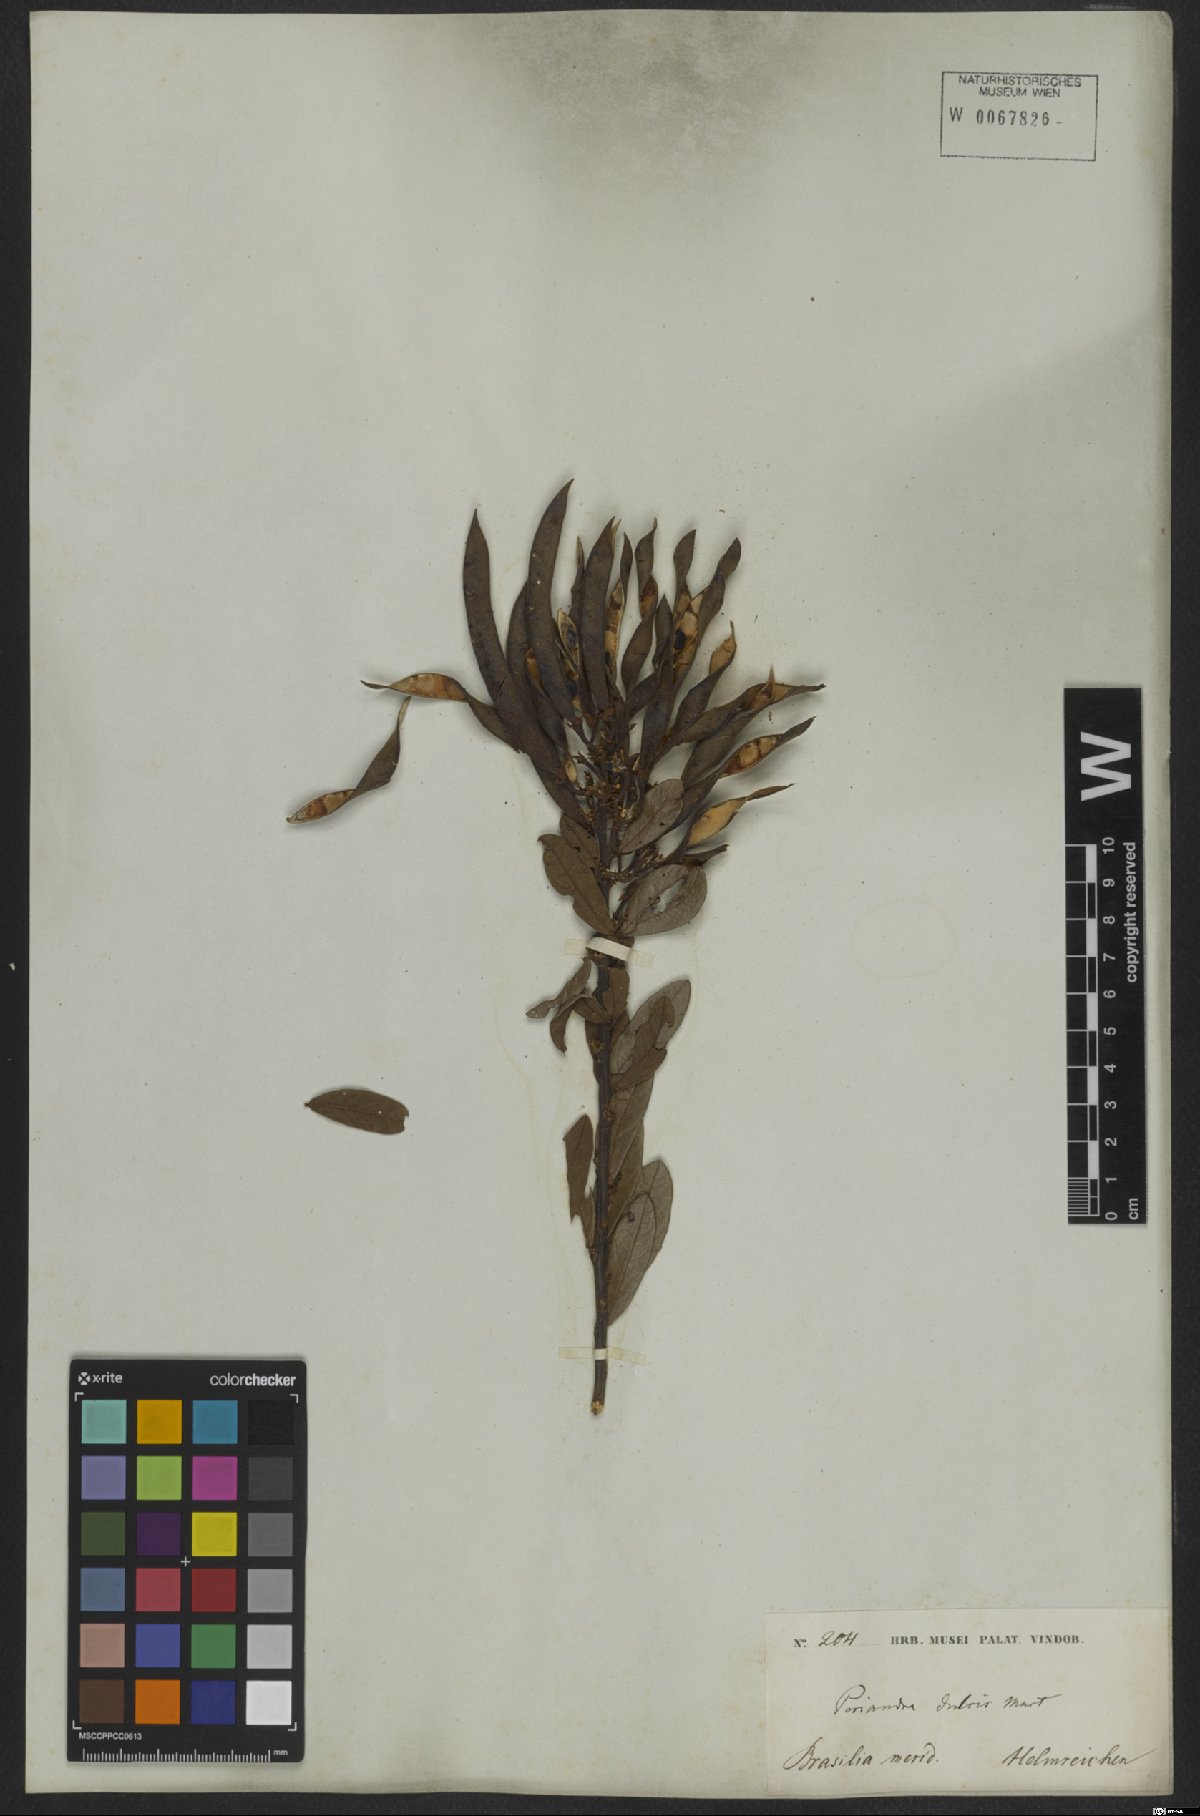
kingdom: Plantae
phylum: Tracheophyta
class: Magnoliopsida
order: Fabales
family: Fabaceae
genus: Periandra
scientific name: Periandra mediterranea
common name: Brazilian licorice
